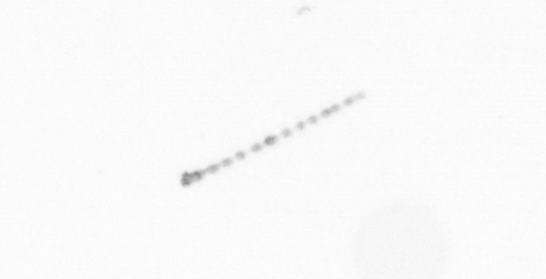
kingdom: Chromista
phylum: Ochrophyta
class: Bacillariophyceae
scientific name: Bacillariophyceae
